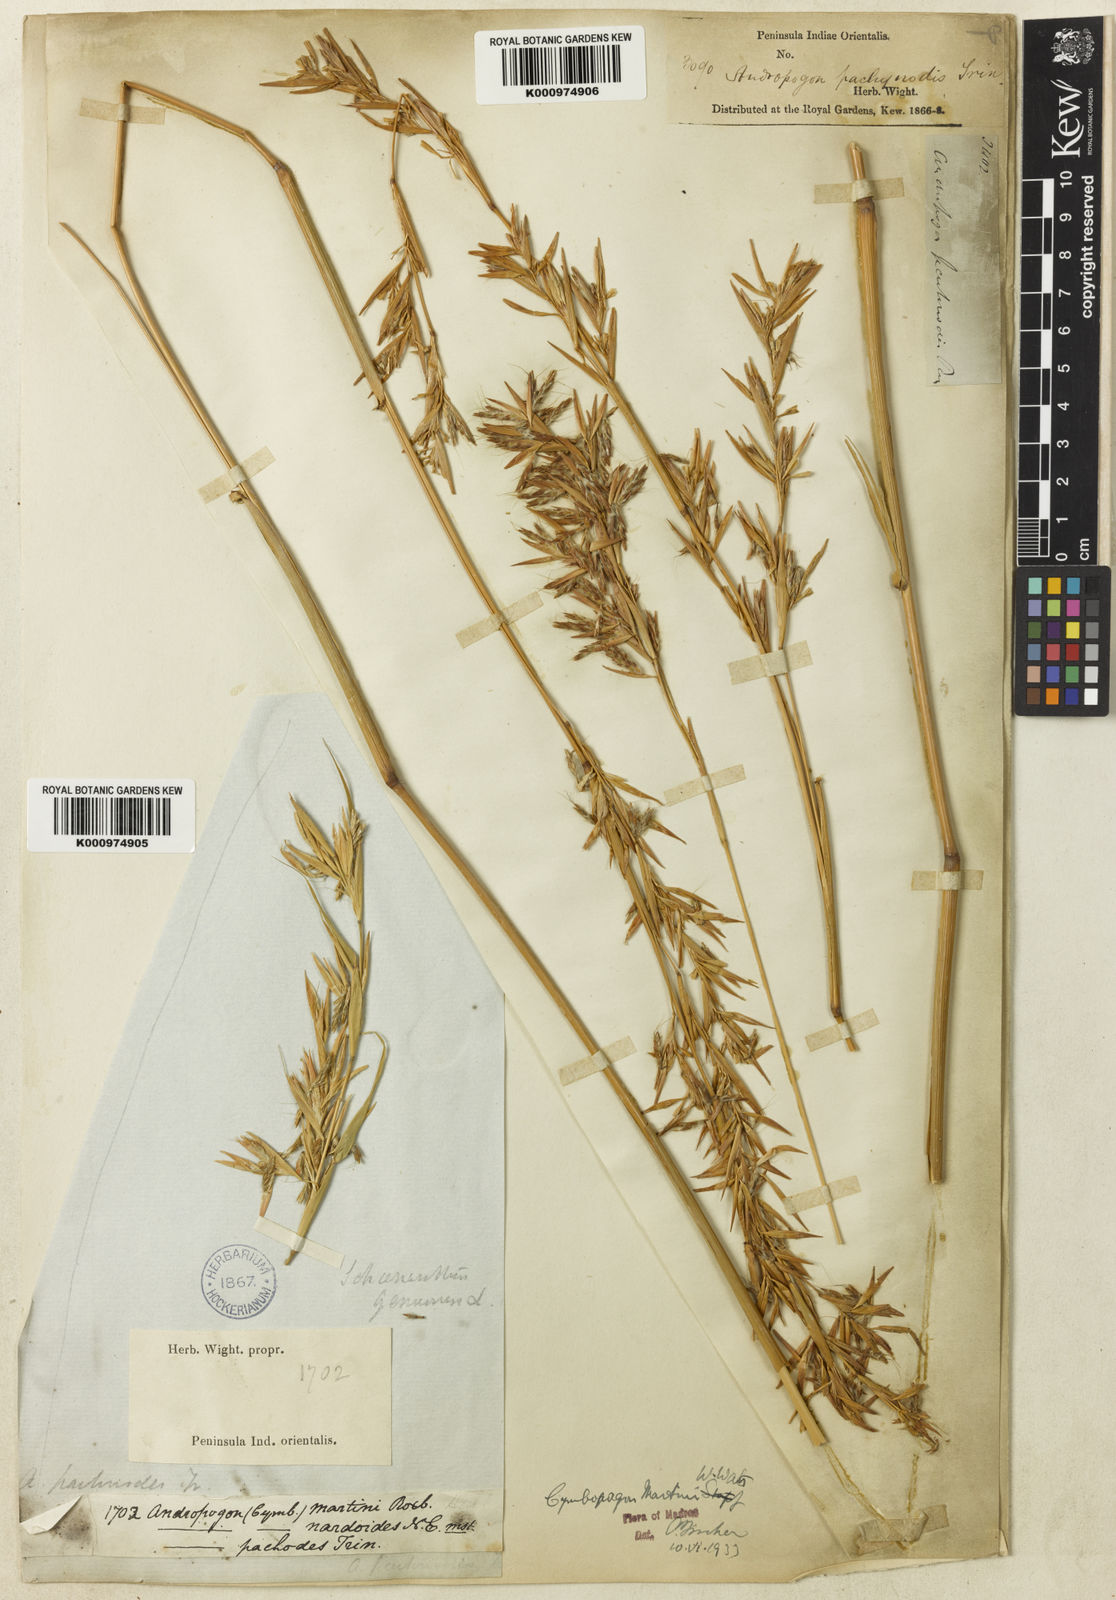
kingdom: Plantae
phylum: Tracheophyta
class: Liliopsida
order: Poales
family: Poaceae
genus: Cymbopogon
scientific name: Cymbopogon martini
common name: Ginger grass
